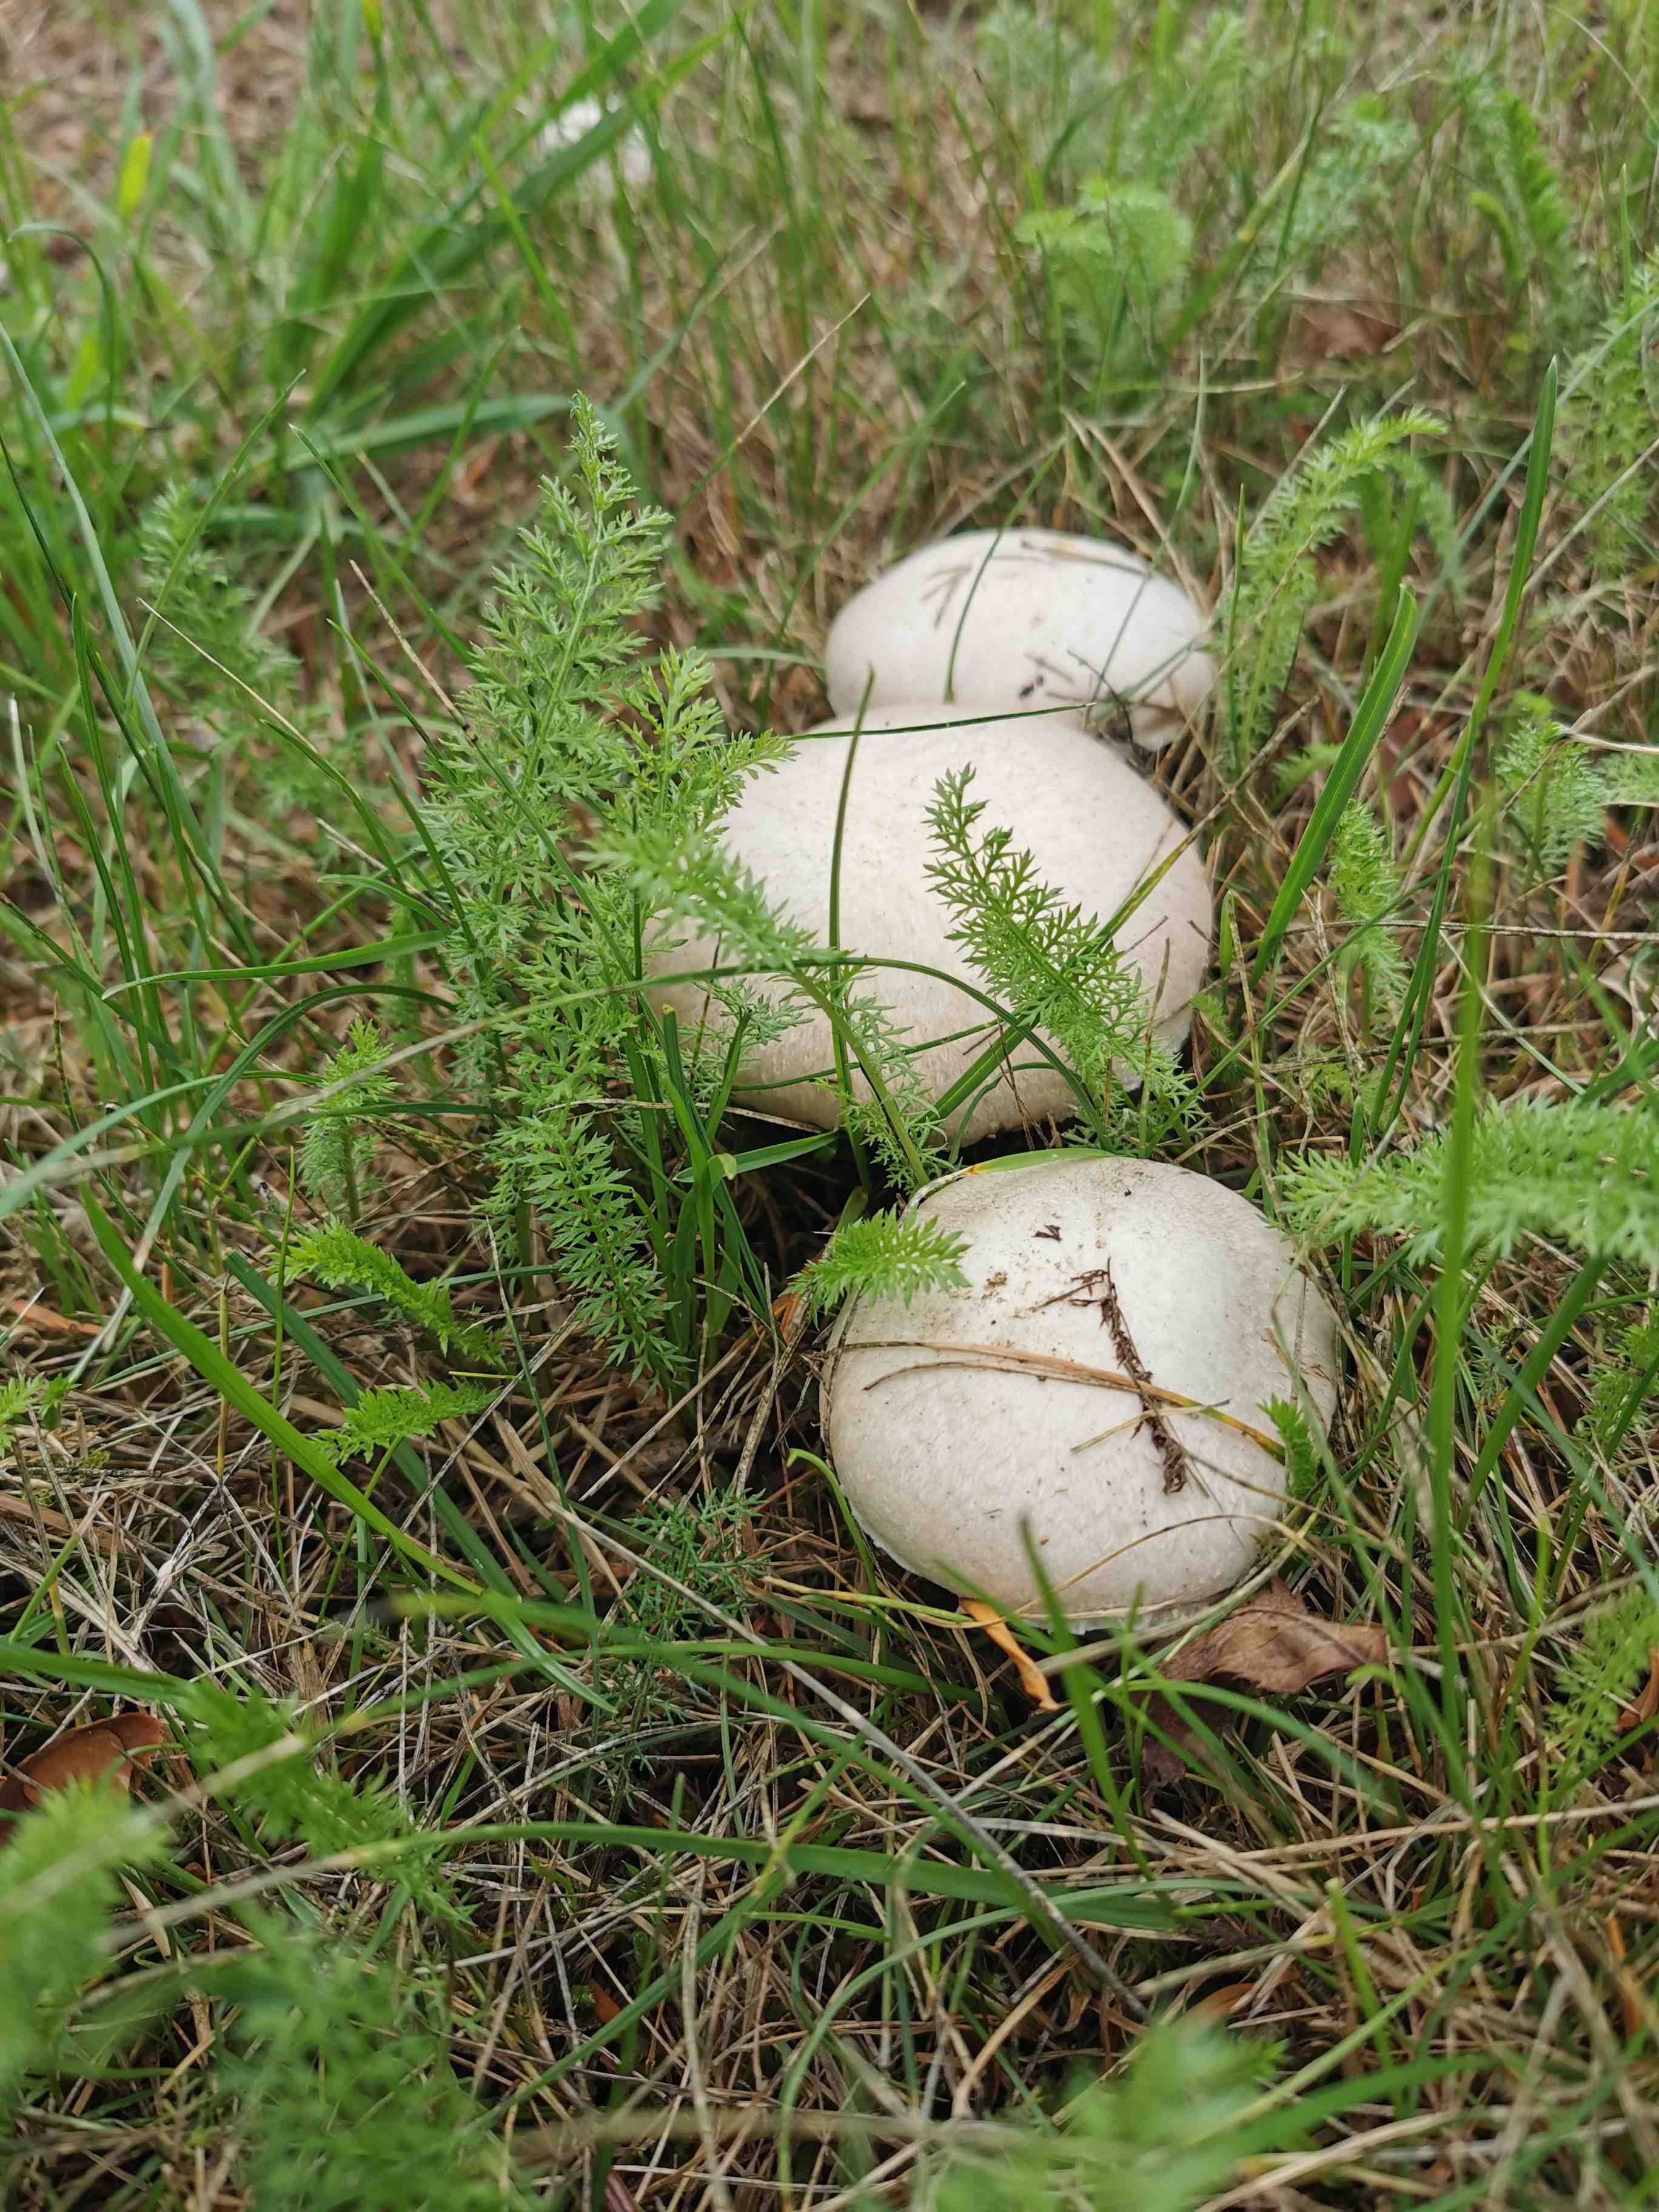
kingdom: Fungi
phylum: Basidiomycota
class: Agaricomycetes
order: Agaricales
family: Agaricaceae
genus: Agaricus
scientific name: Agaricus campestris
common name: mark-champignon
